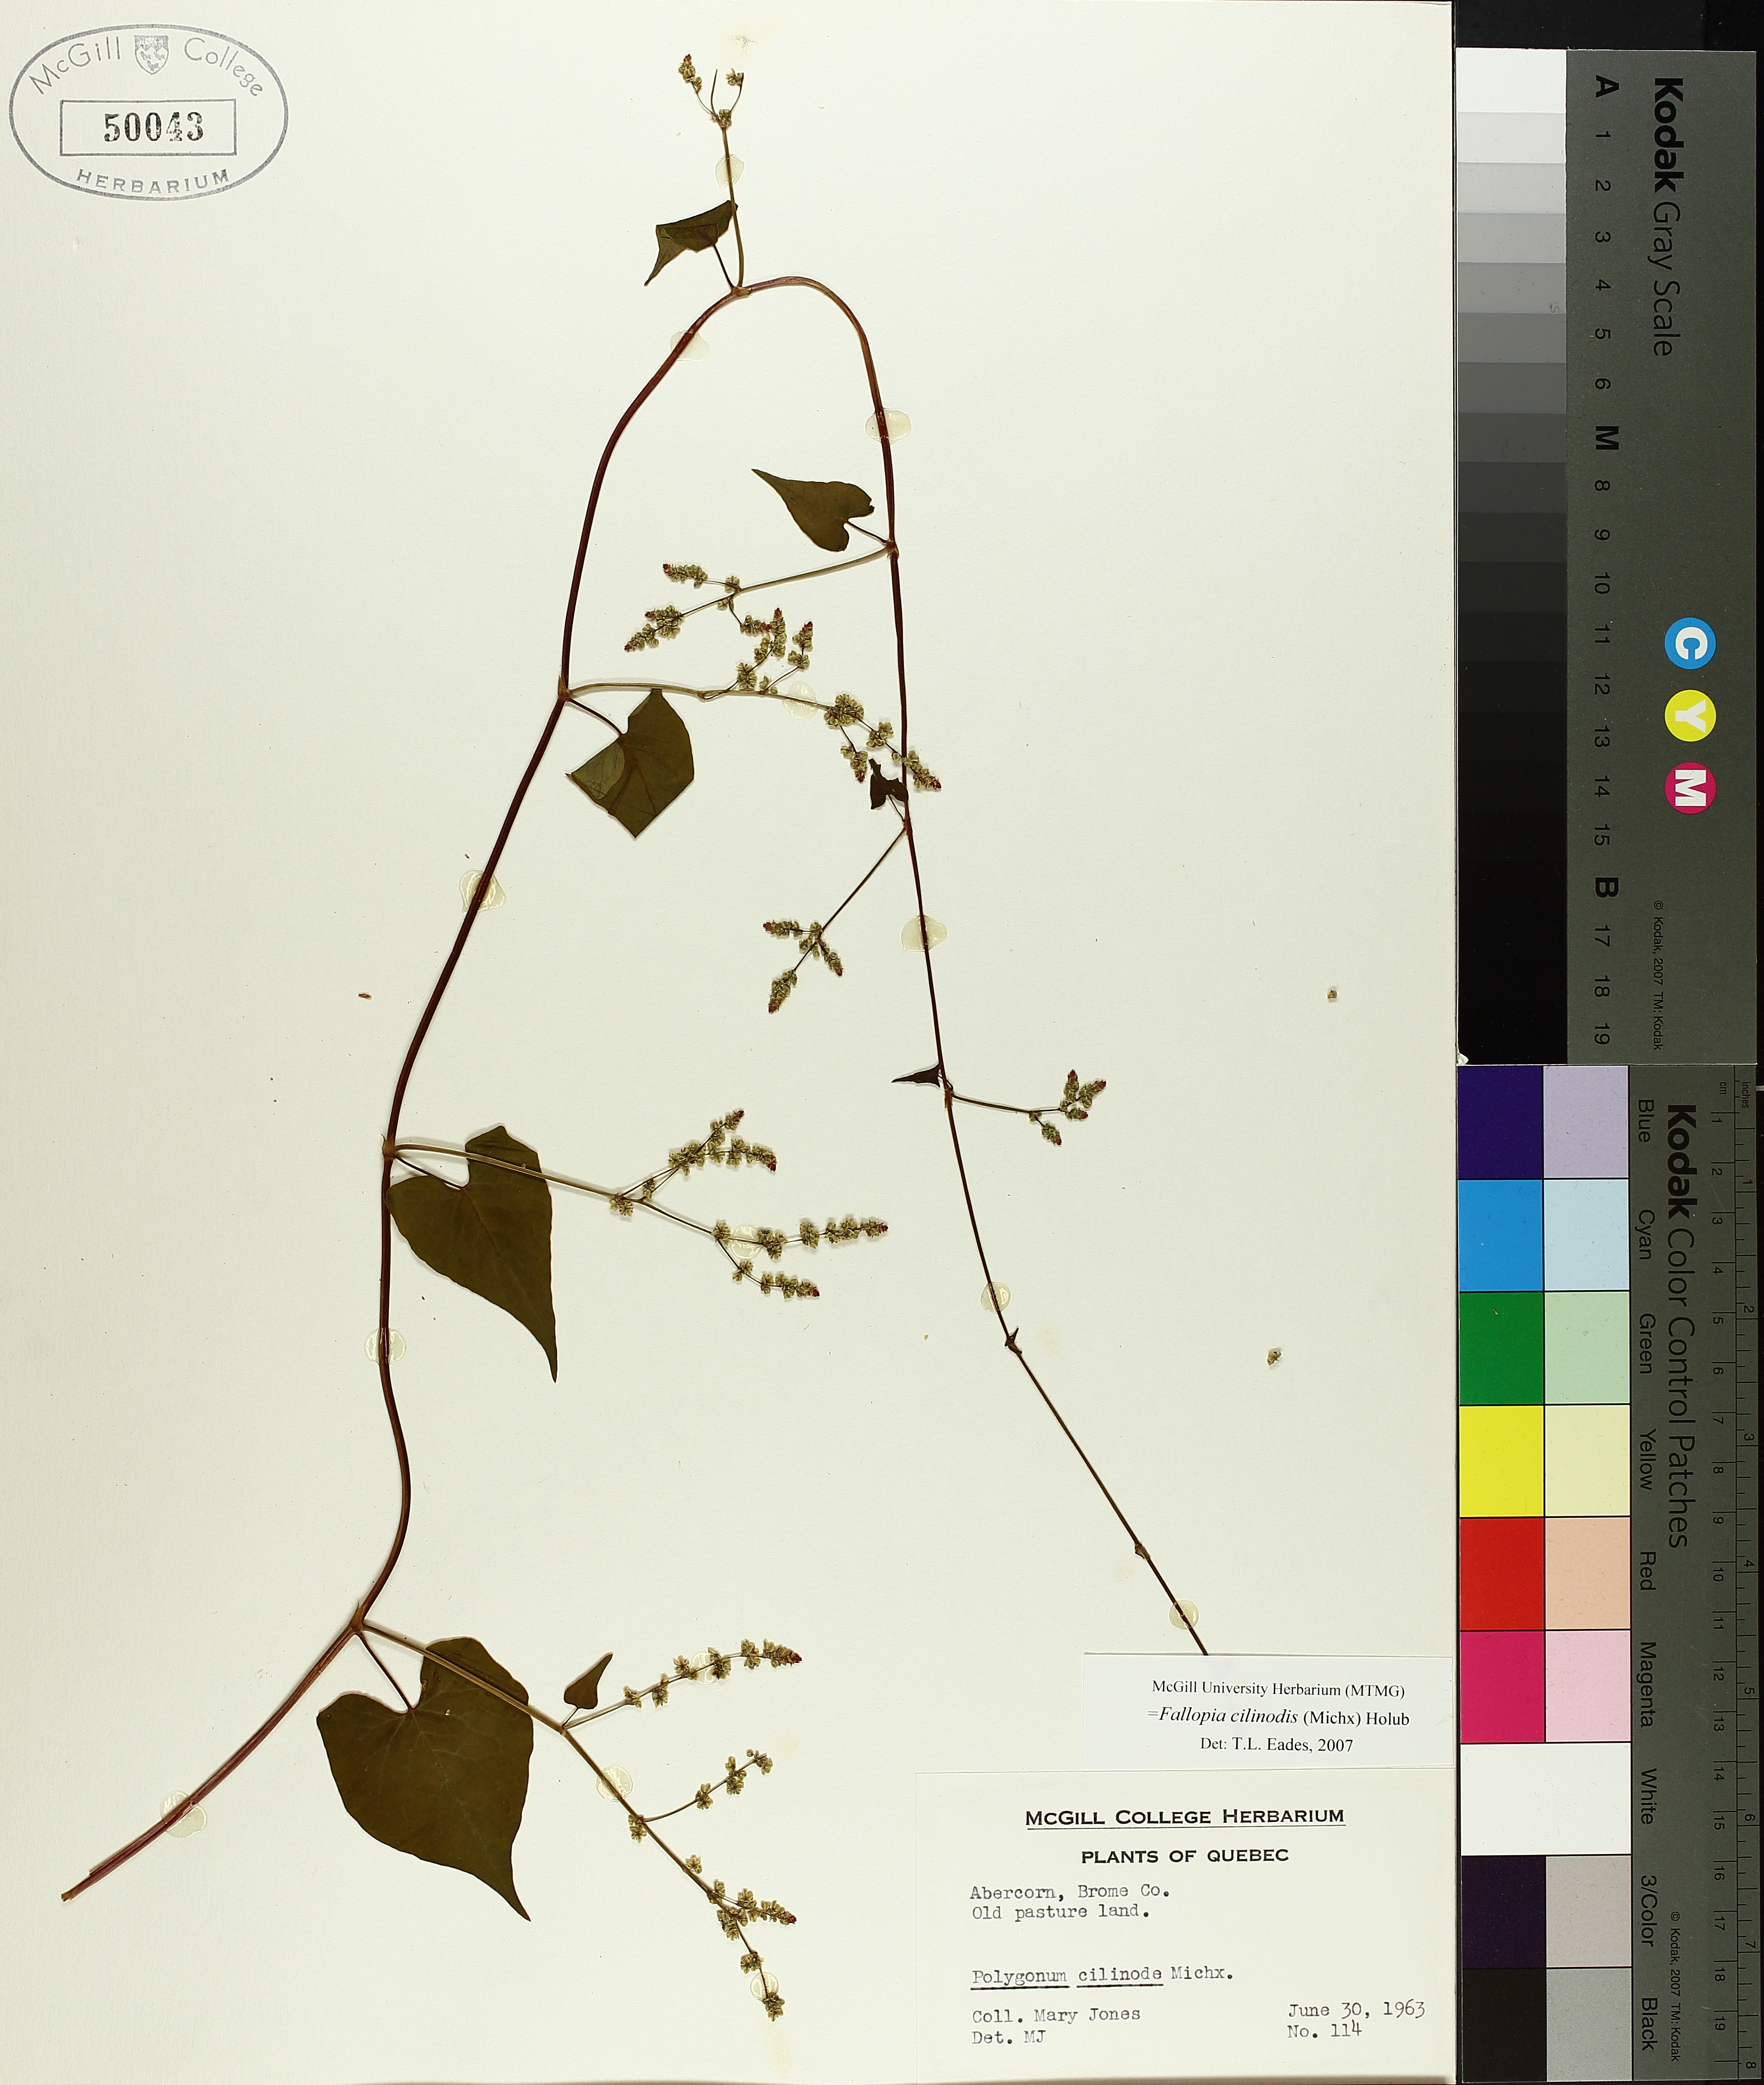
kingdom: Plantae
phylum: Tracheophyta
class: Magnoliopsida
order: Caryophyllales
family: Polygonaceae
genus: Parogonum
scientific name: Parogonum ciliinode
